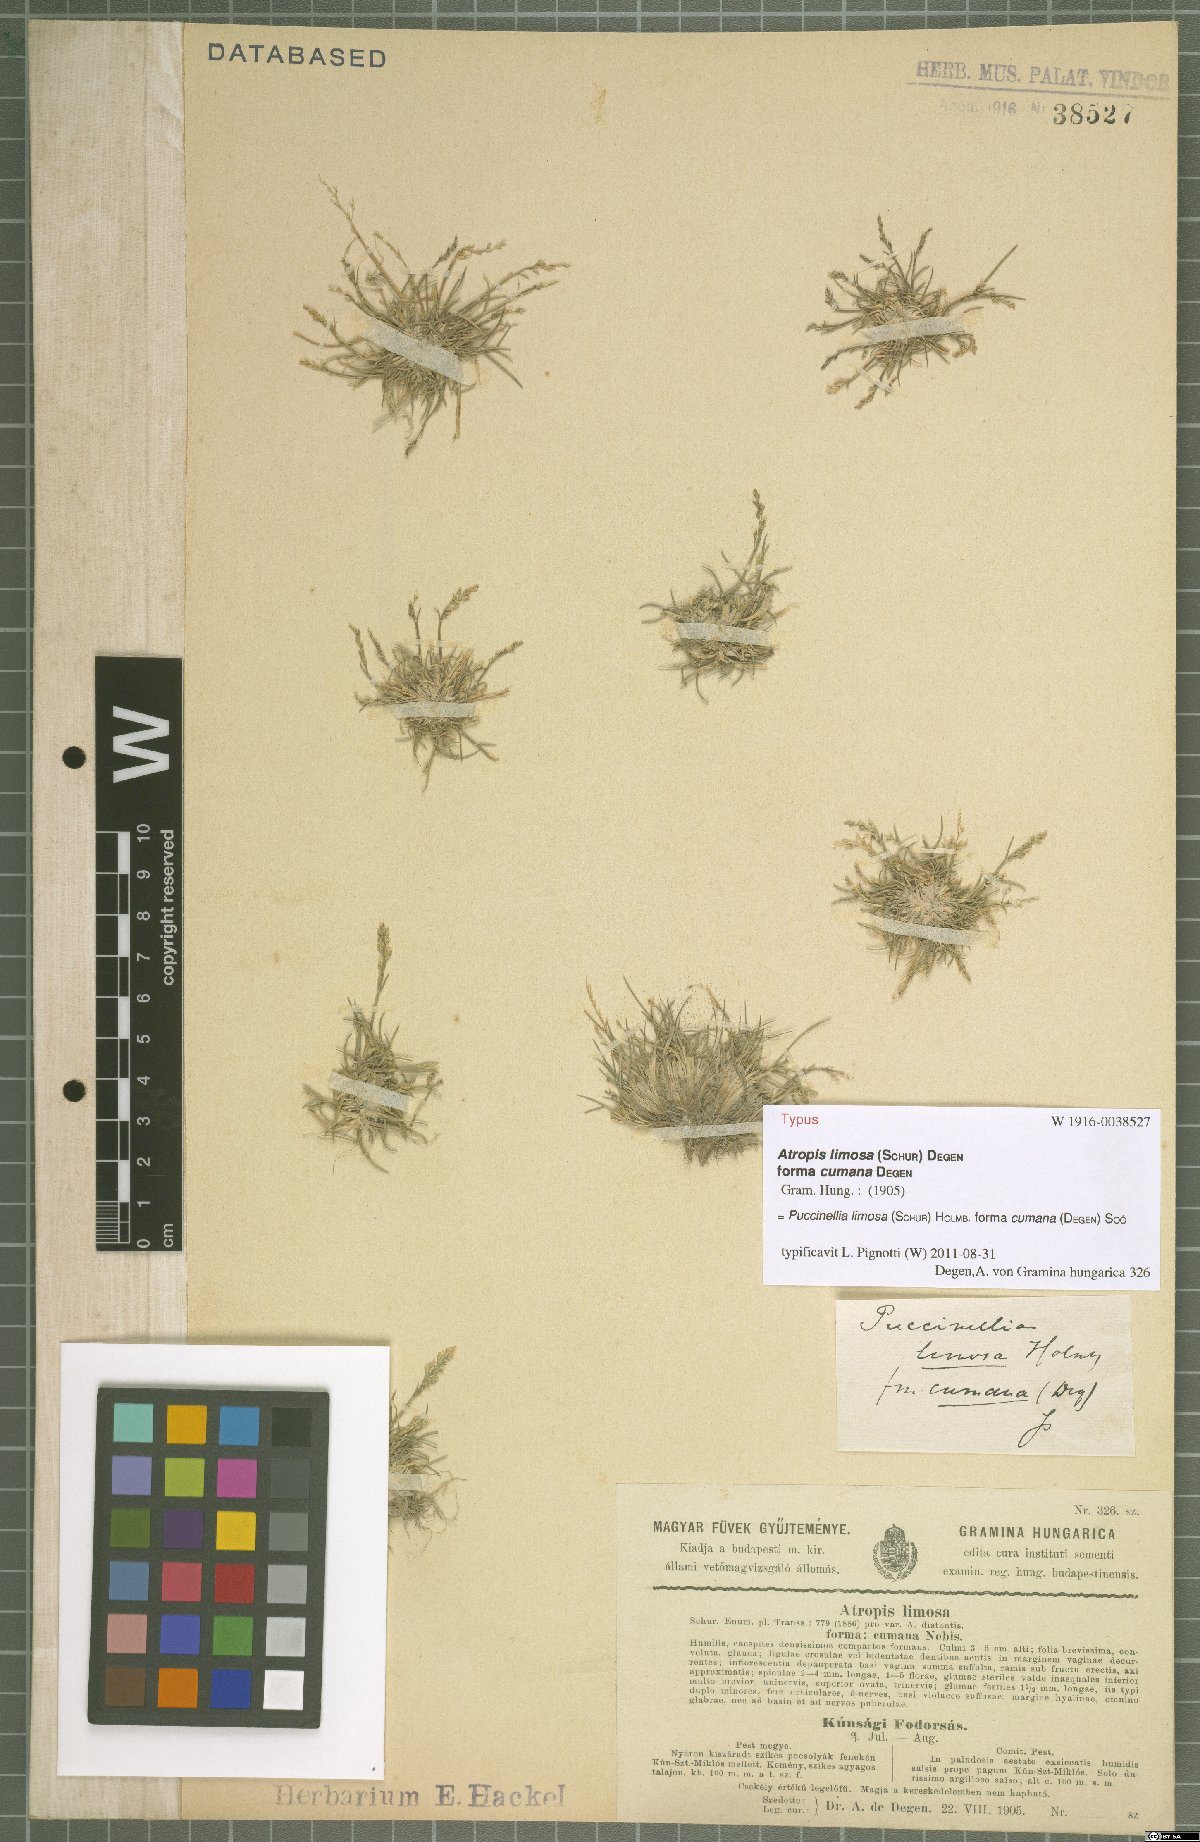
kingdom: Plantae
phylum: Tracheophyta
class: Liliopsida
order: Poales
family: Poaceae
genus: Puccinellia
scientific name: Puccinellia distans
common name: Weeping alkaligrass
